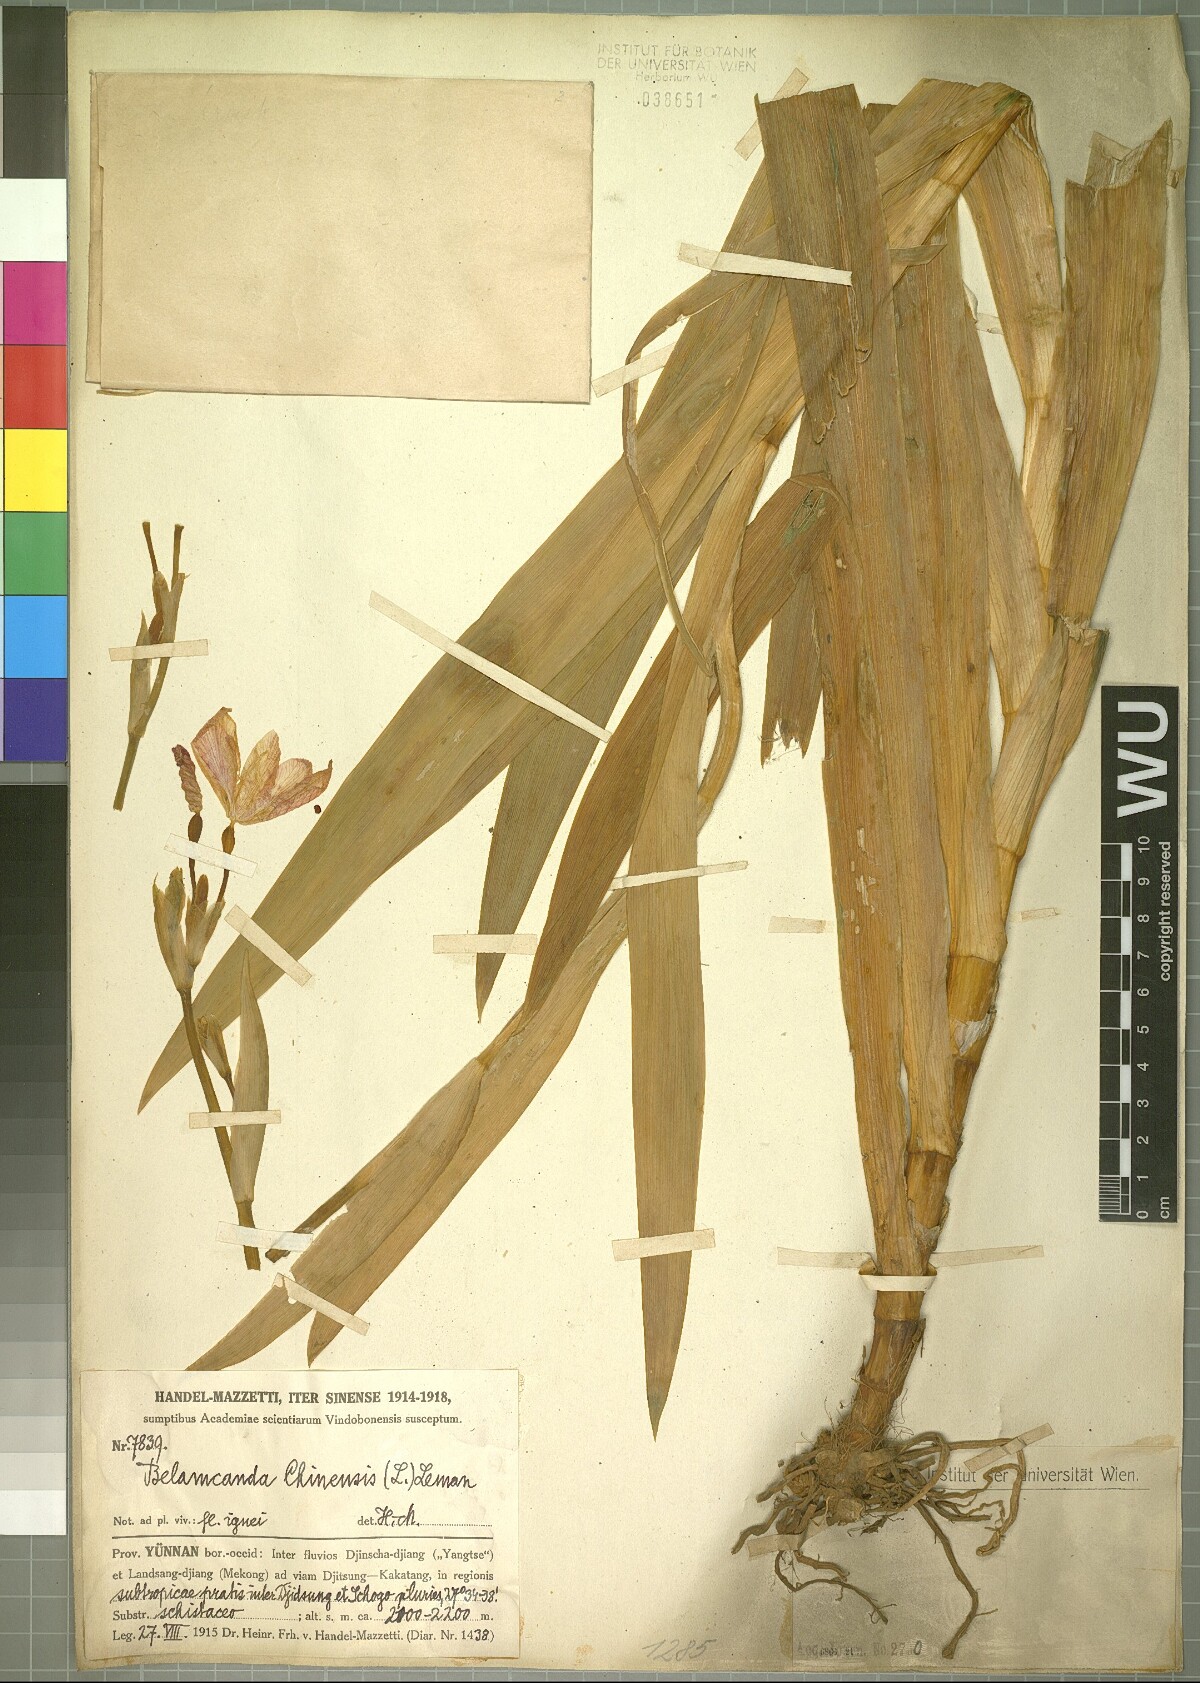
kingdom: Plantae
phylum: Tracheophyta
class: Liliopsida
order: Asparagales
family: Iridaceae
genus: Iris
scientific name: Iris domestica
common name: Belamcanda
